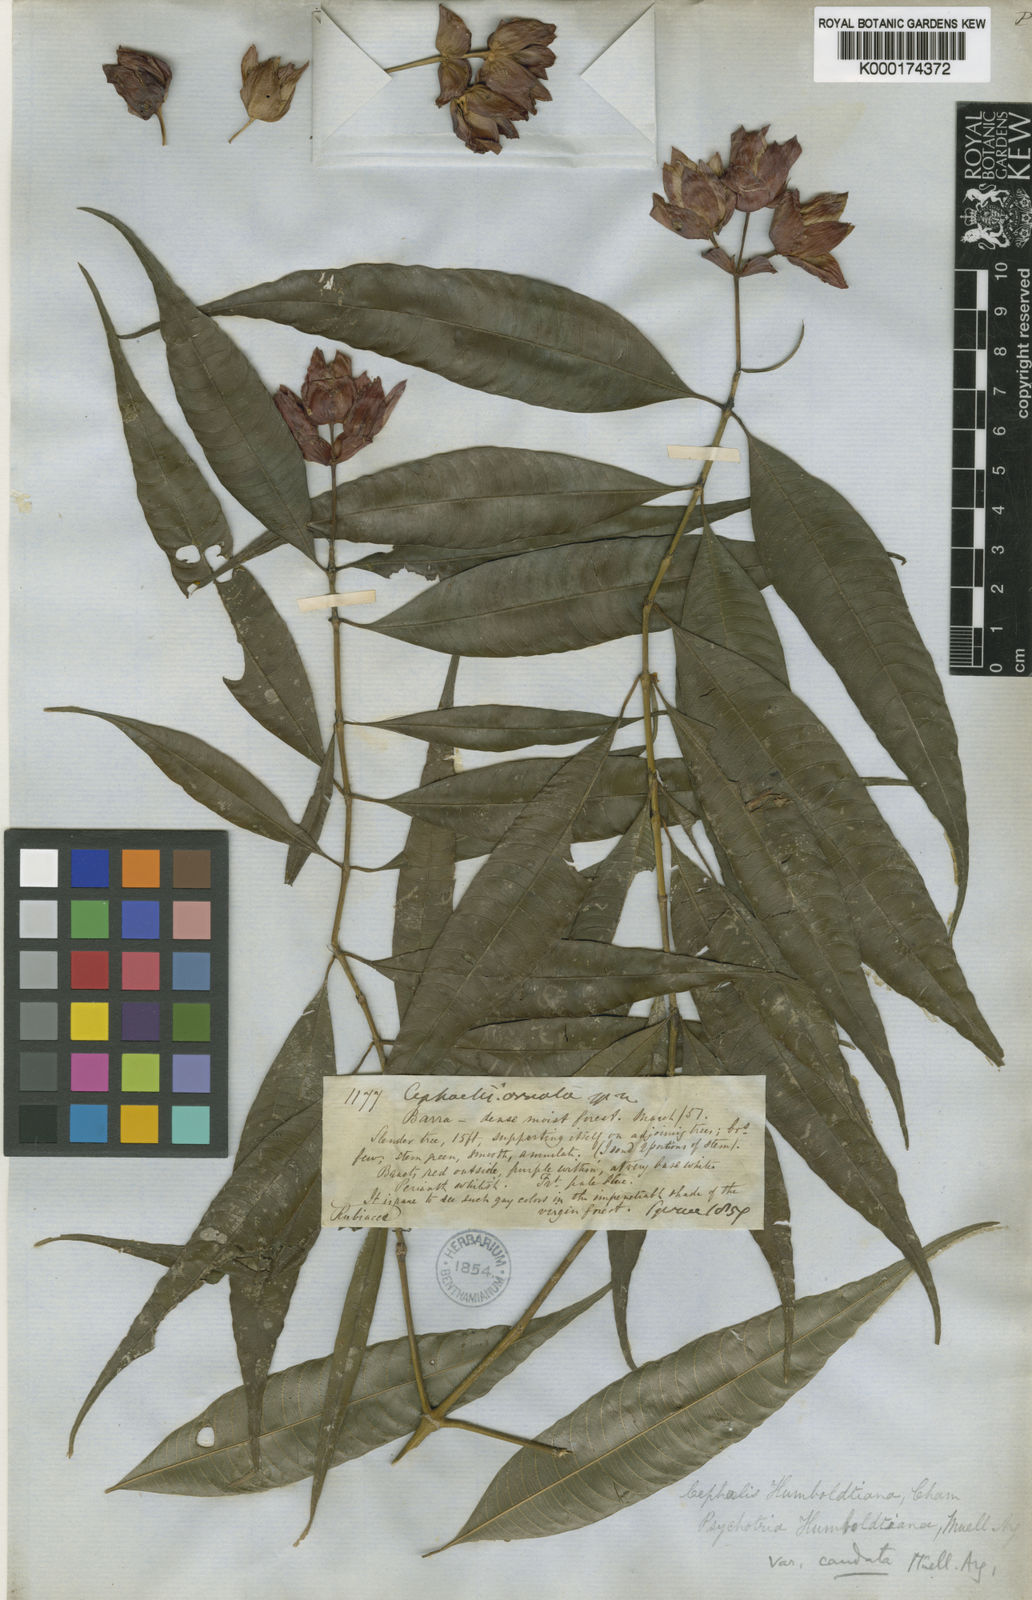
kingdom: Plantae
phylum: Tracheophyta
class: Magnoliopsida
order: Gentianales
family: Rubiaceae
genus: Psychotria
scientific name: Psychotria
